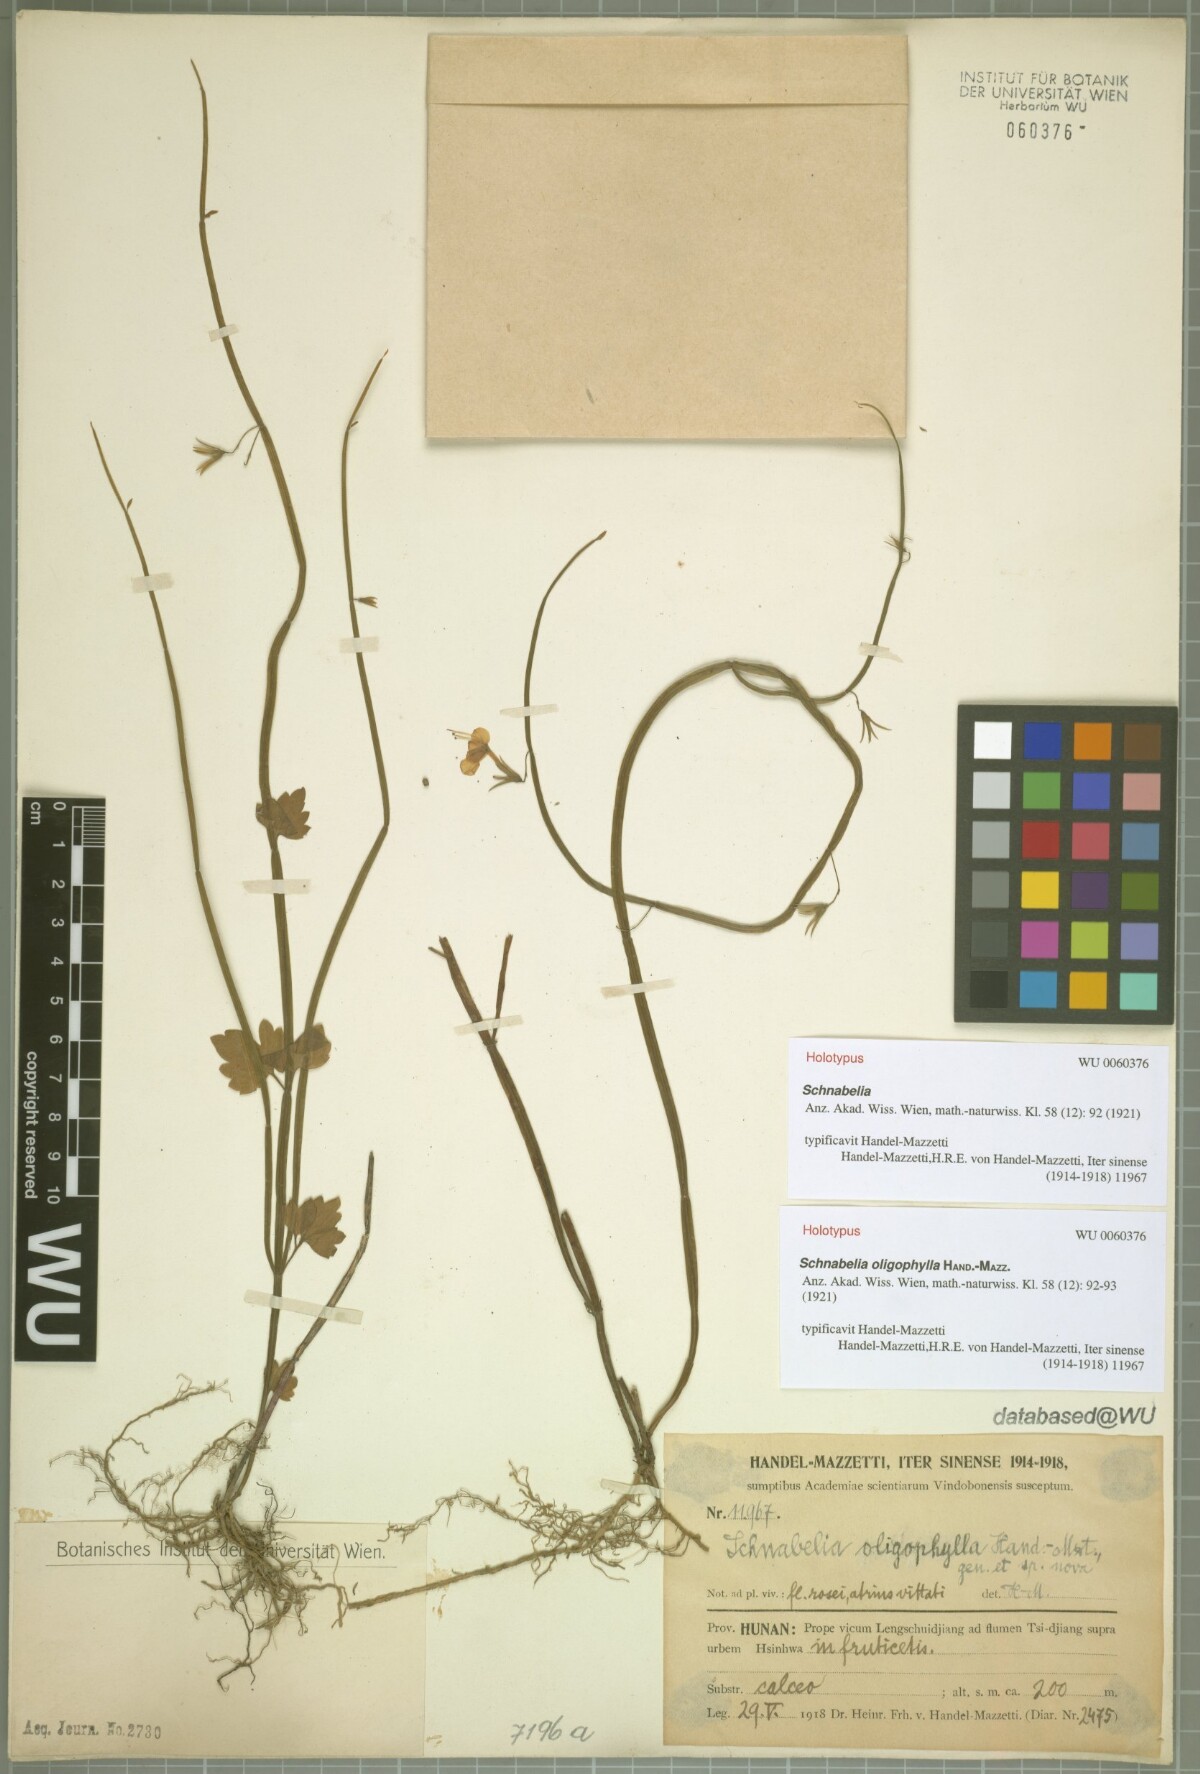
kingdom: Plantae
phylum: Tracheophyta
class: Magnoliopsida
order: Lamiales
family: Lamiaceae
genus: Schnabelia
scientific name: Schnabelia oligophylla
